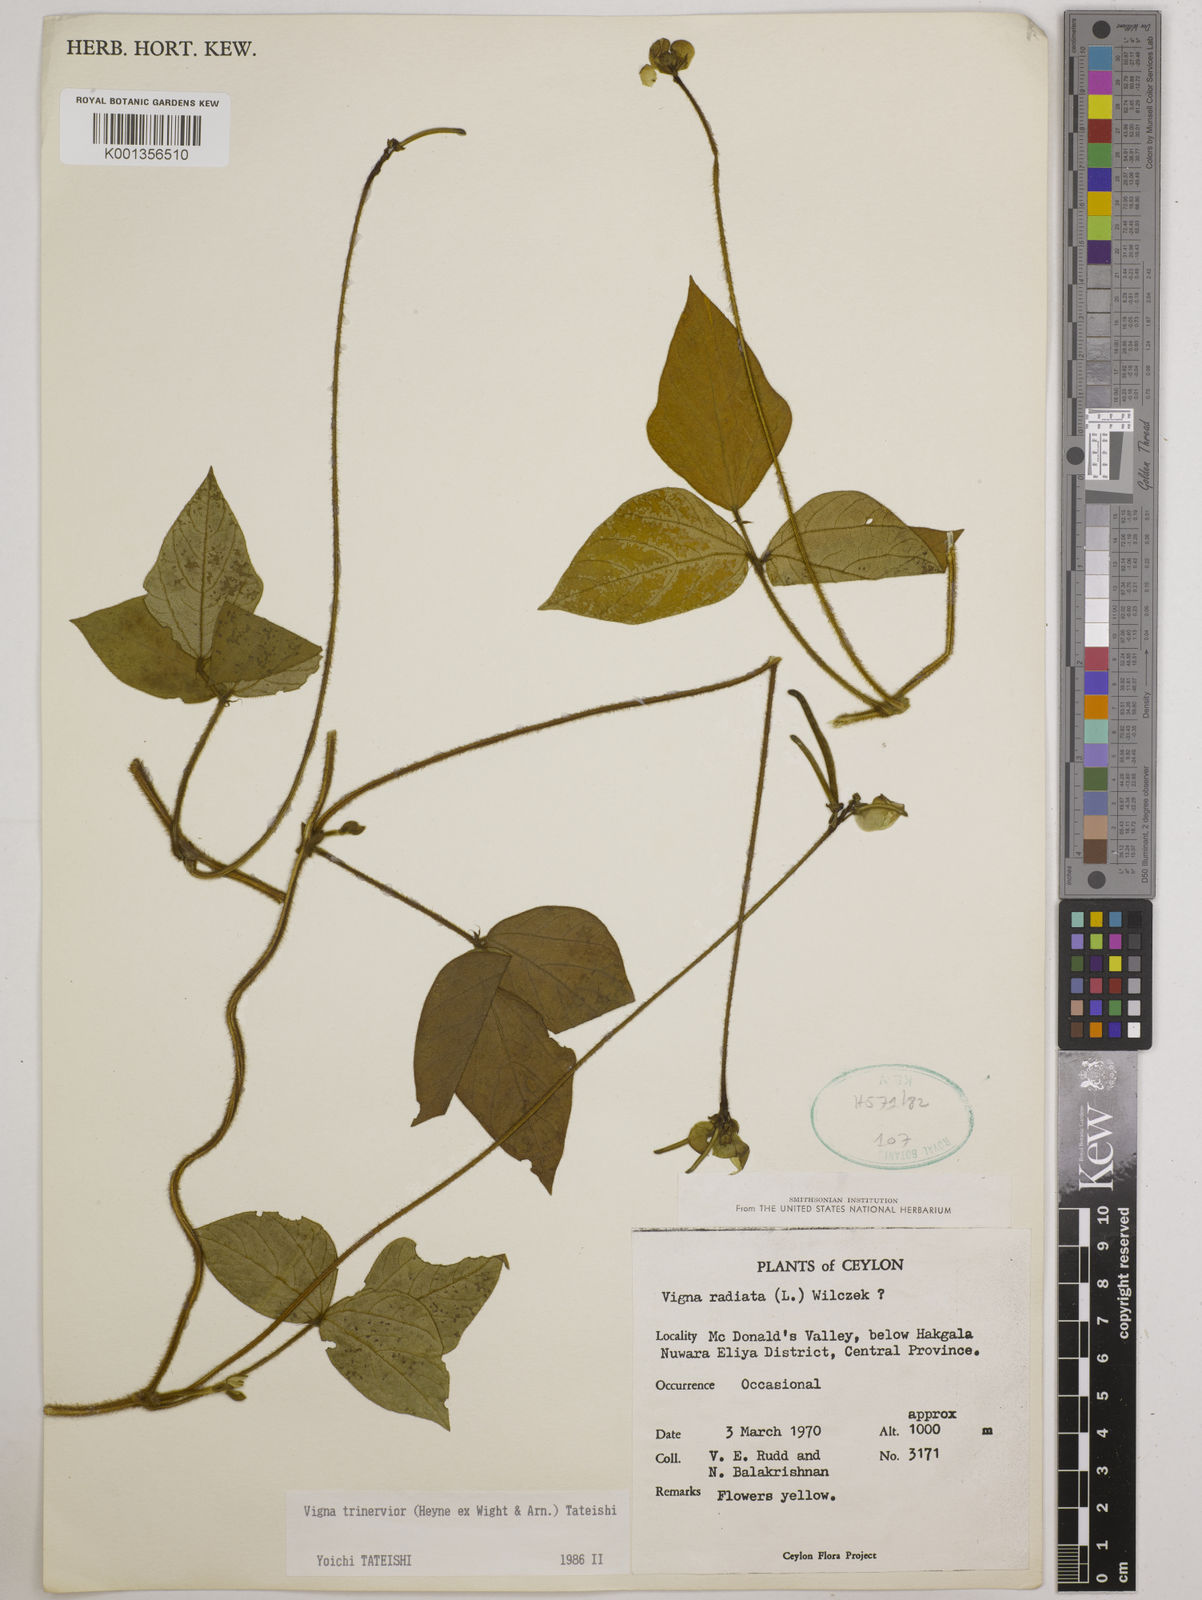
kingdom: Plantae
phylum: Tracheophyta
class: Magnoliopsida
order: Fabales
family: Fabaceae
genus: Vigna
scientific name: Vigna radiata
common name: Mung-bean
